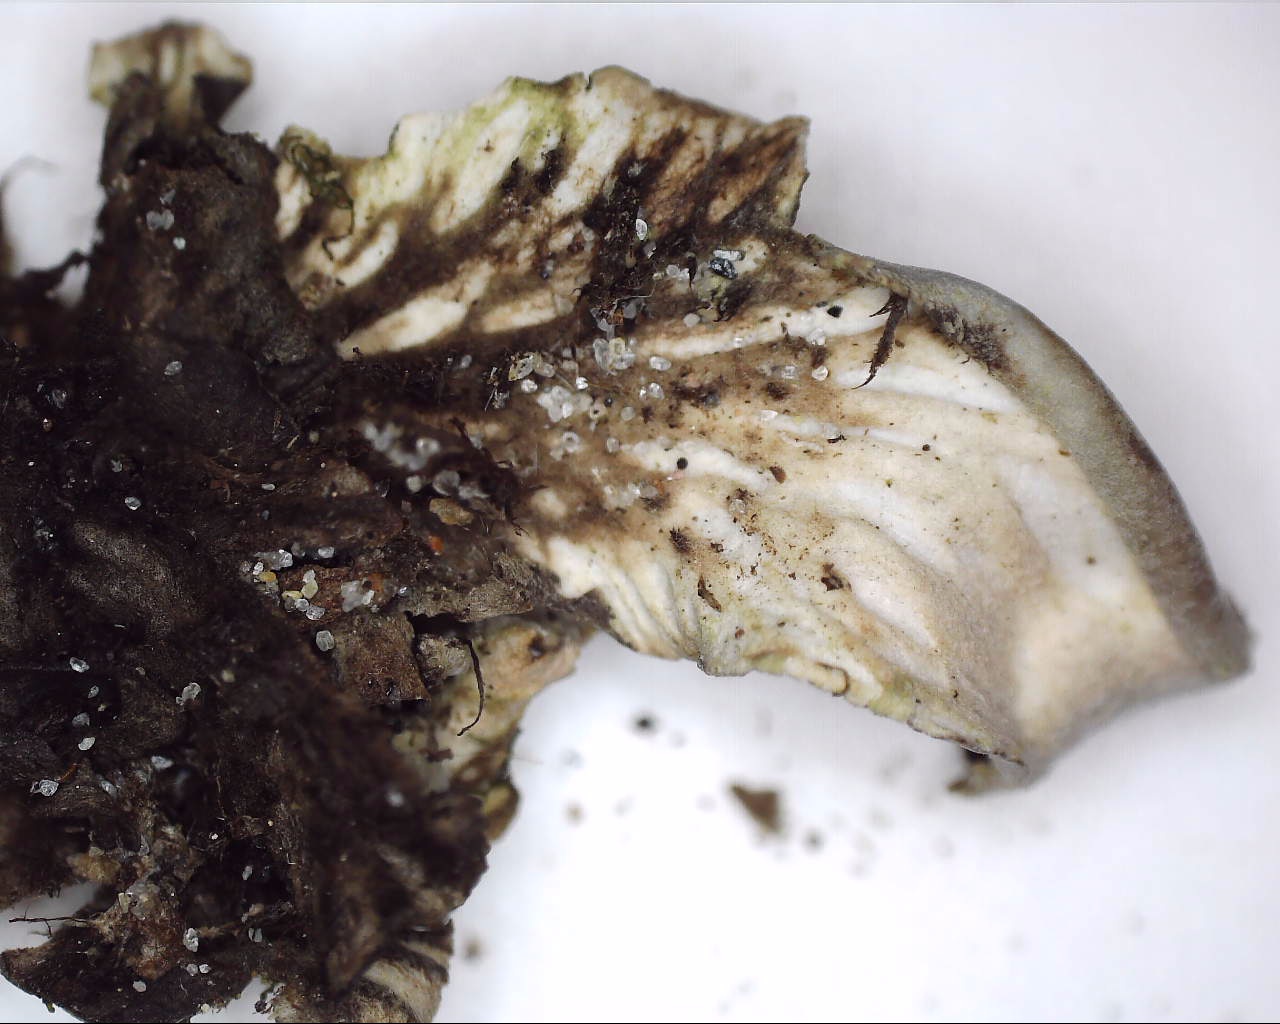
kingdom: Fungi
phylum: Ascomycota
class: Lecanoromycetes
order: Peltigerales
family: Peltigeraceae
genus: Peltigera
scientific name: Peltigera neckeri
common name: glinsende skjoldlav
